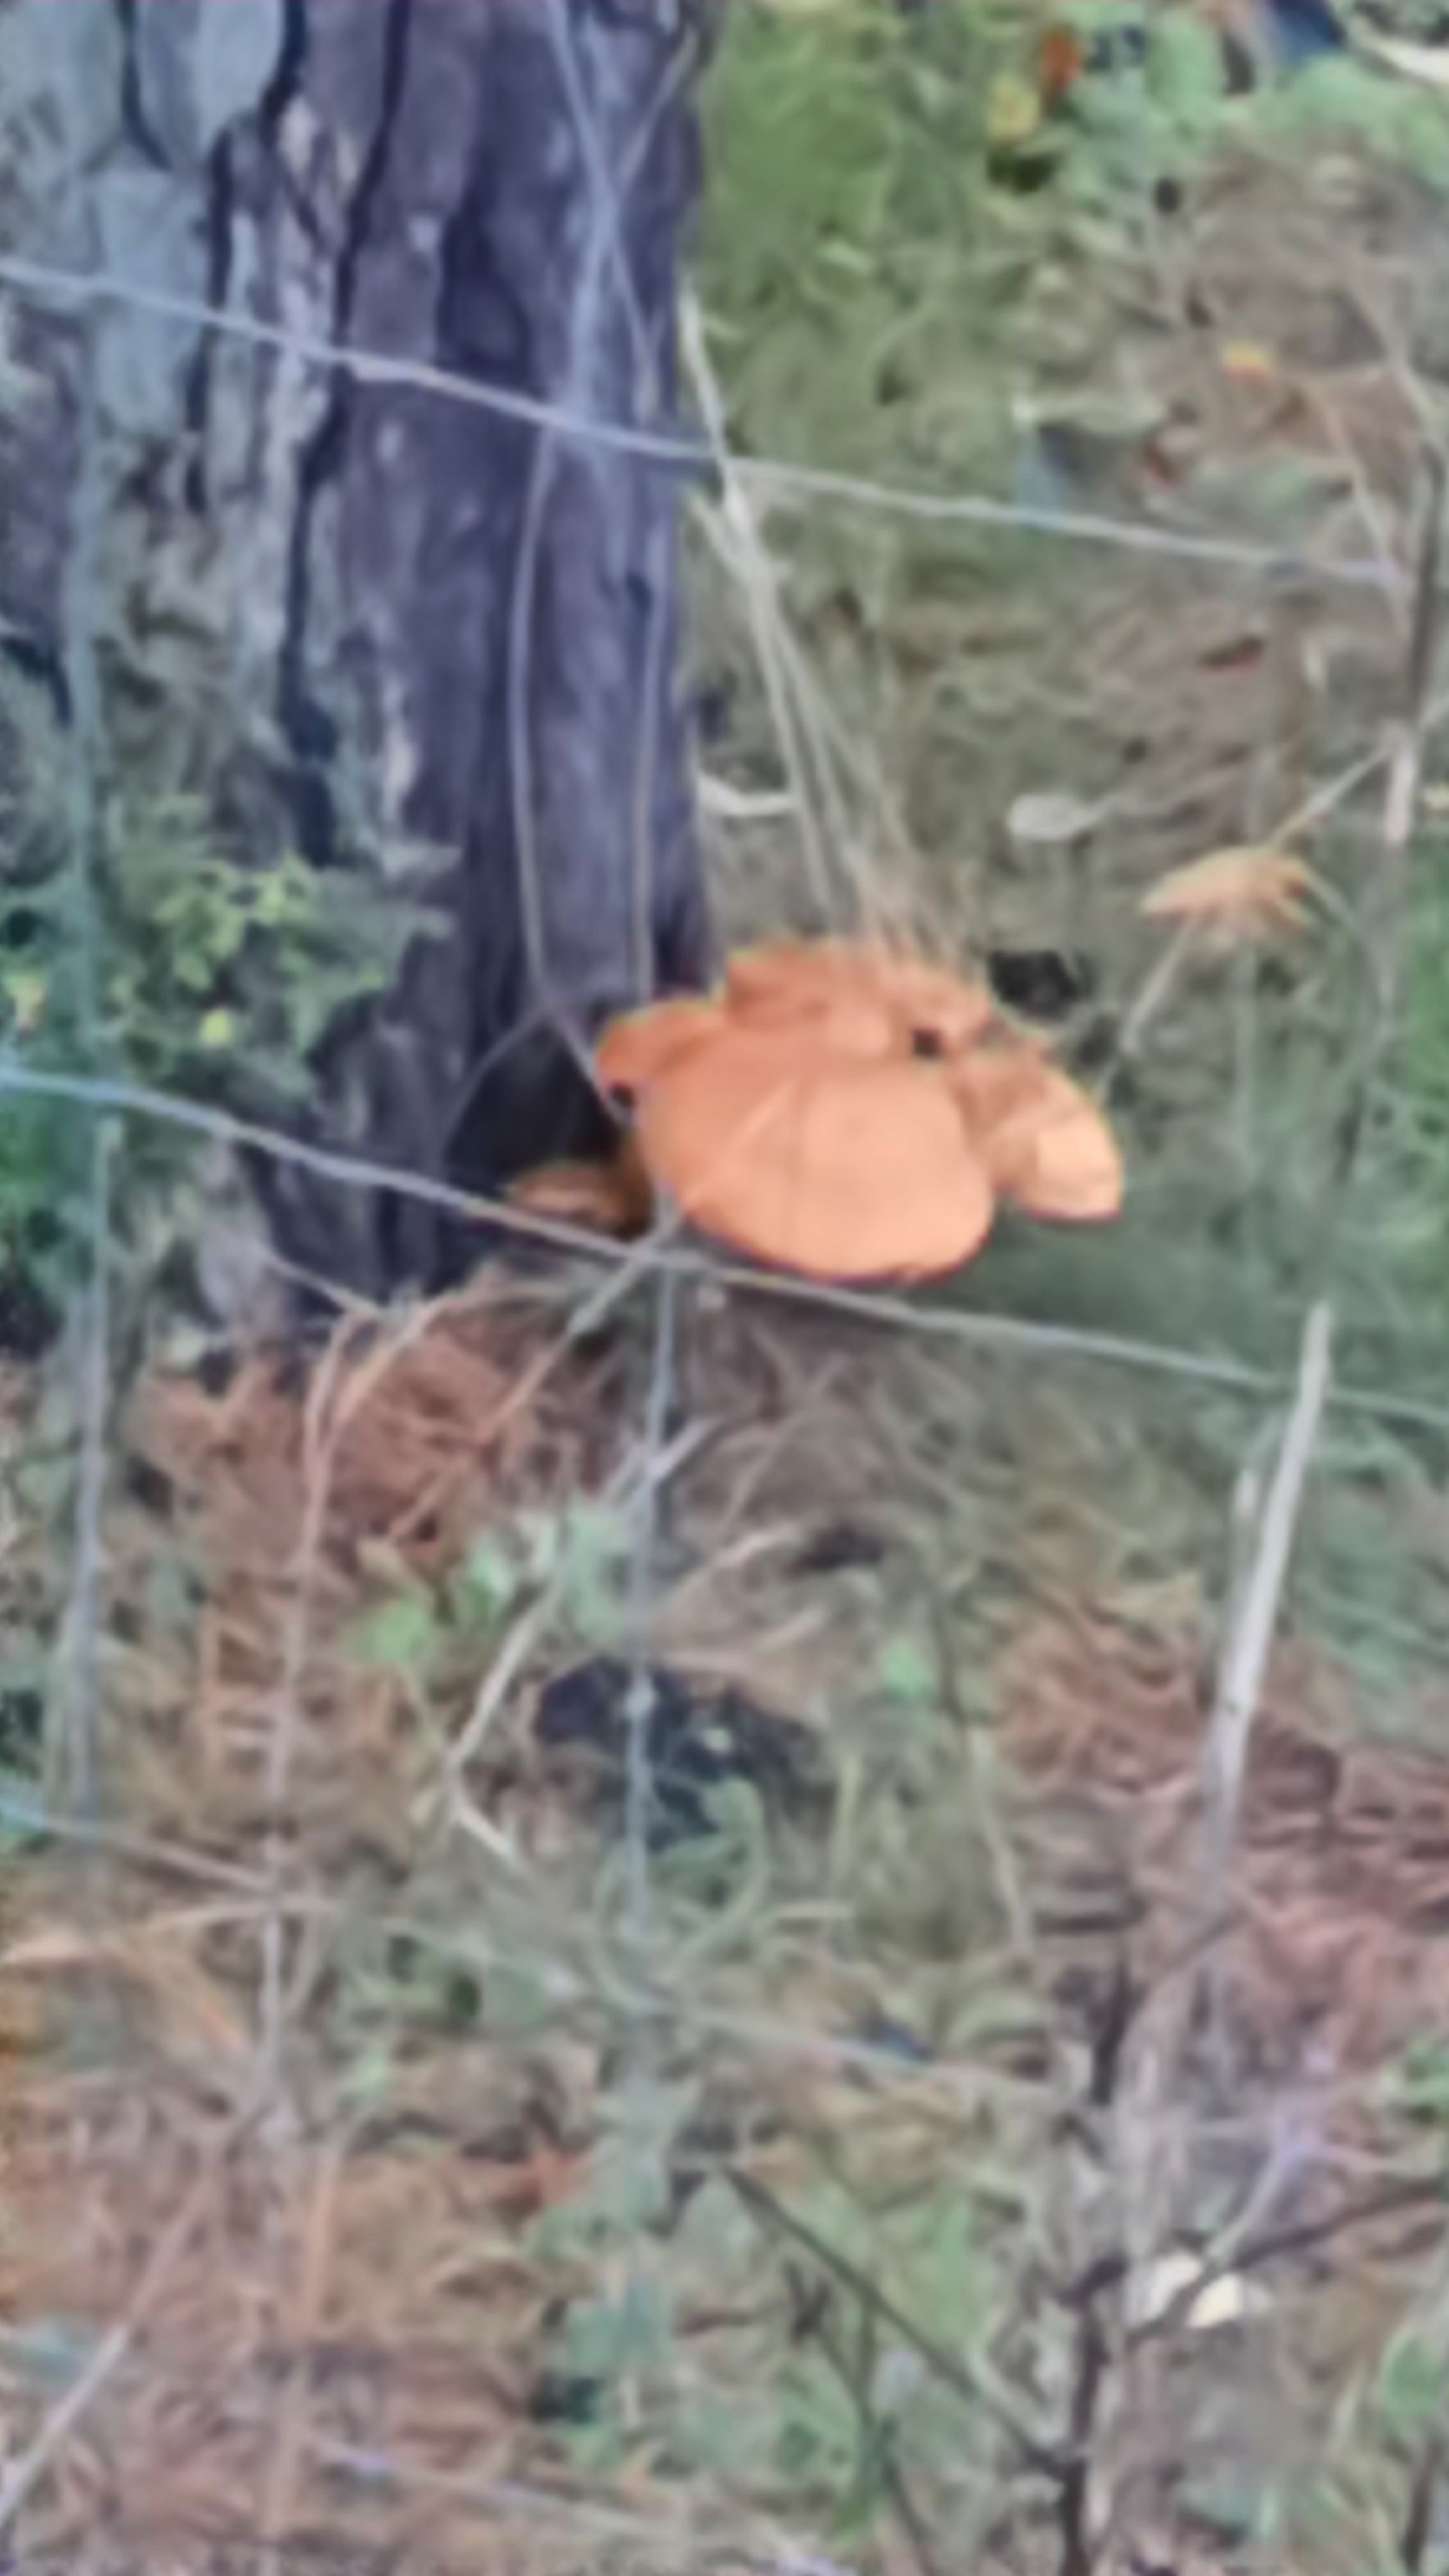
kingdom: Fungi
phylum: Basidiomycota
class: Agaricomycetes
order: Agaricales
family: Hymenogastraceae
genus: Gymnopilus
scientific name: Gymnopilus spectabilis
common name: fibret flammehat
